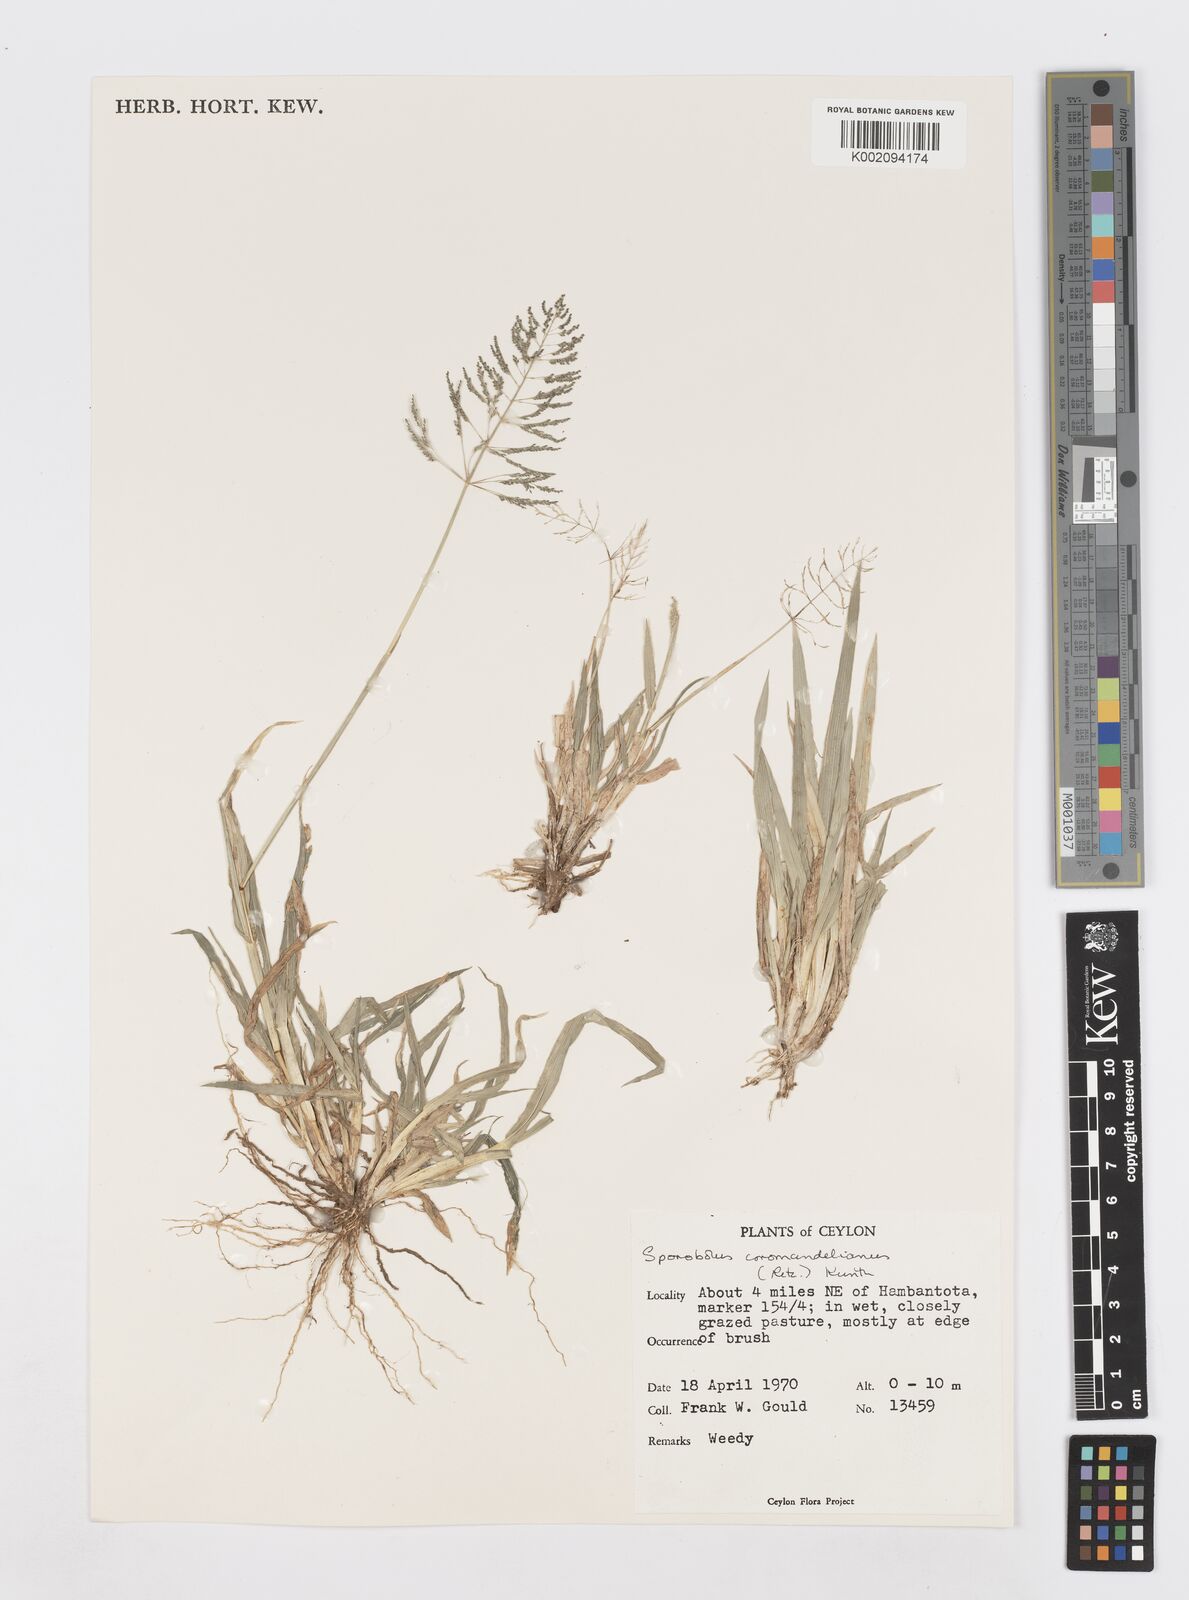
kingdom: Plantae
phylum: Tracheophyta
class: Liliopsida
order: Poales
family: Poaceae
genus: Sporobolus
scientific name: Sporobolus coromandelianus
